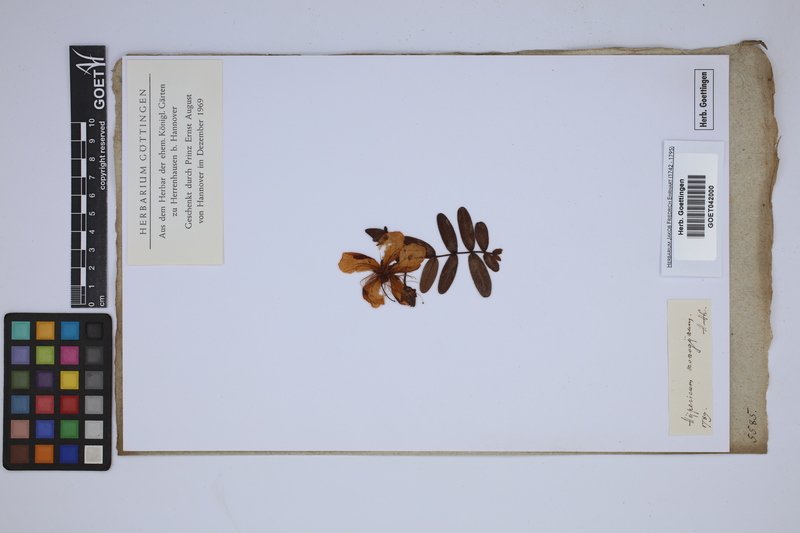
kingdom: Plantae
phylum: Tracheophyta
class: Magnoliopsida
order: Malpighiales
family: Hypericaceae
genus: Hypericum
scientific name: Hypericum monogynum
